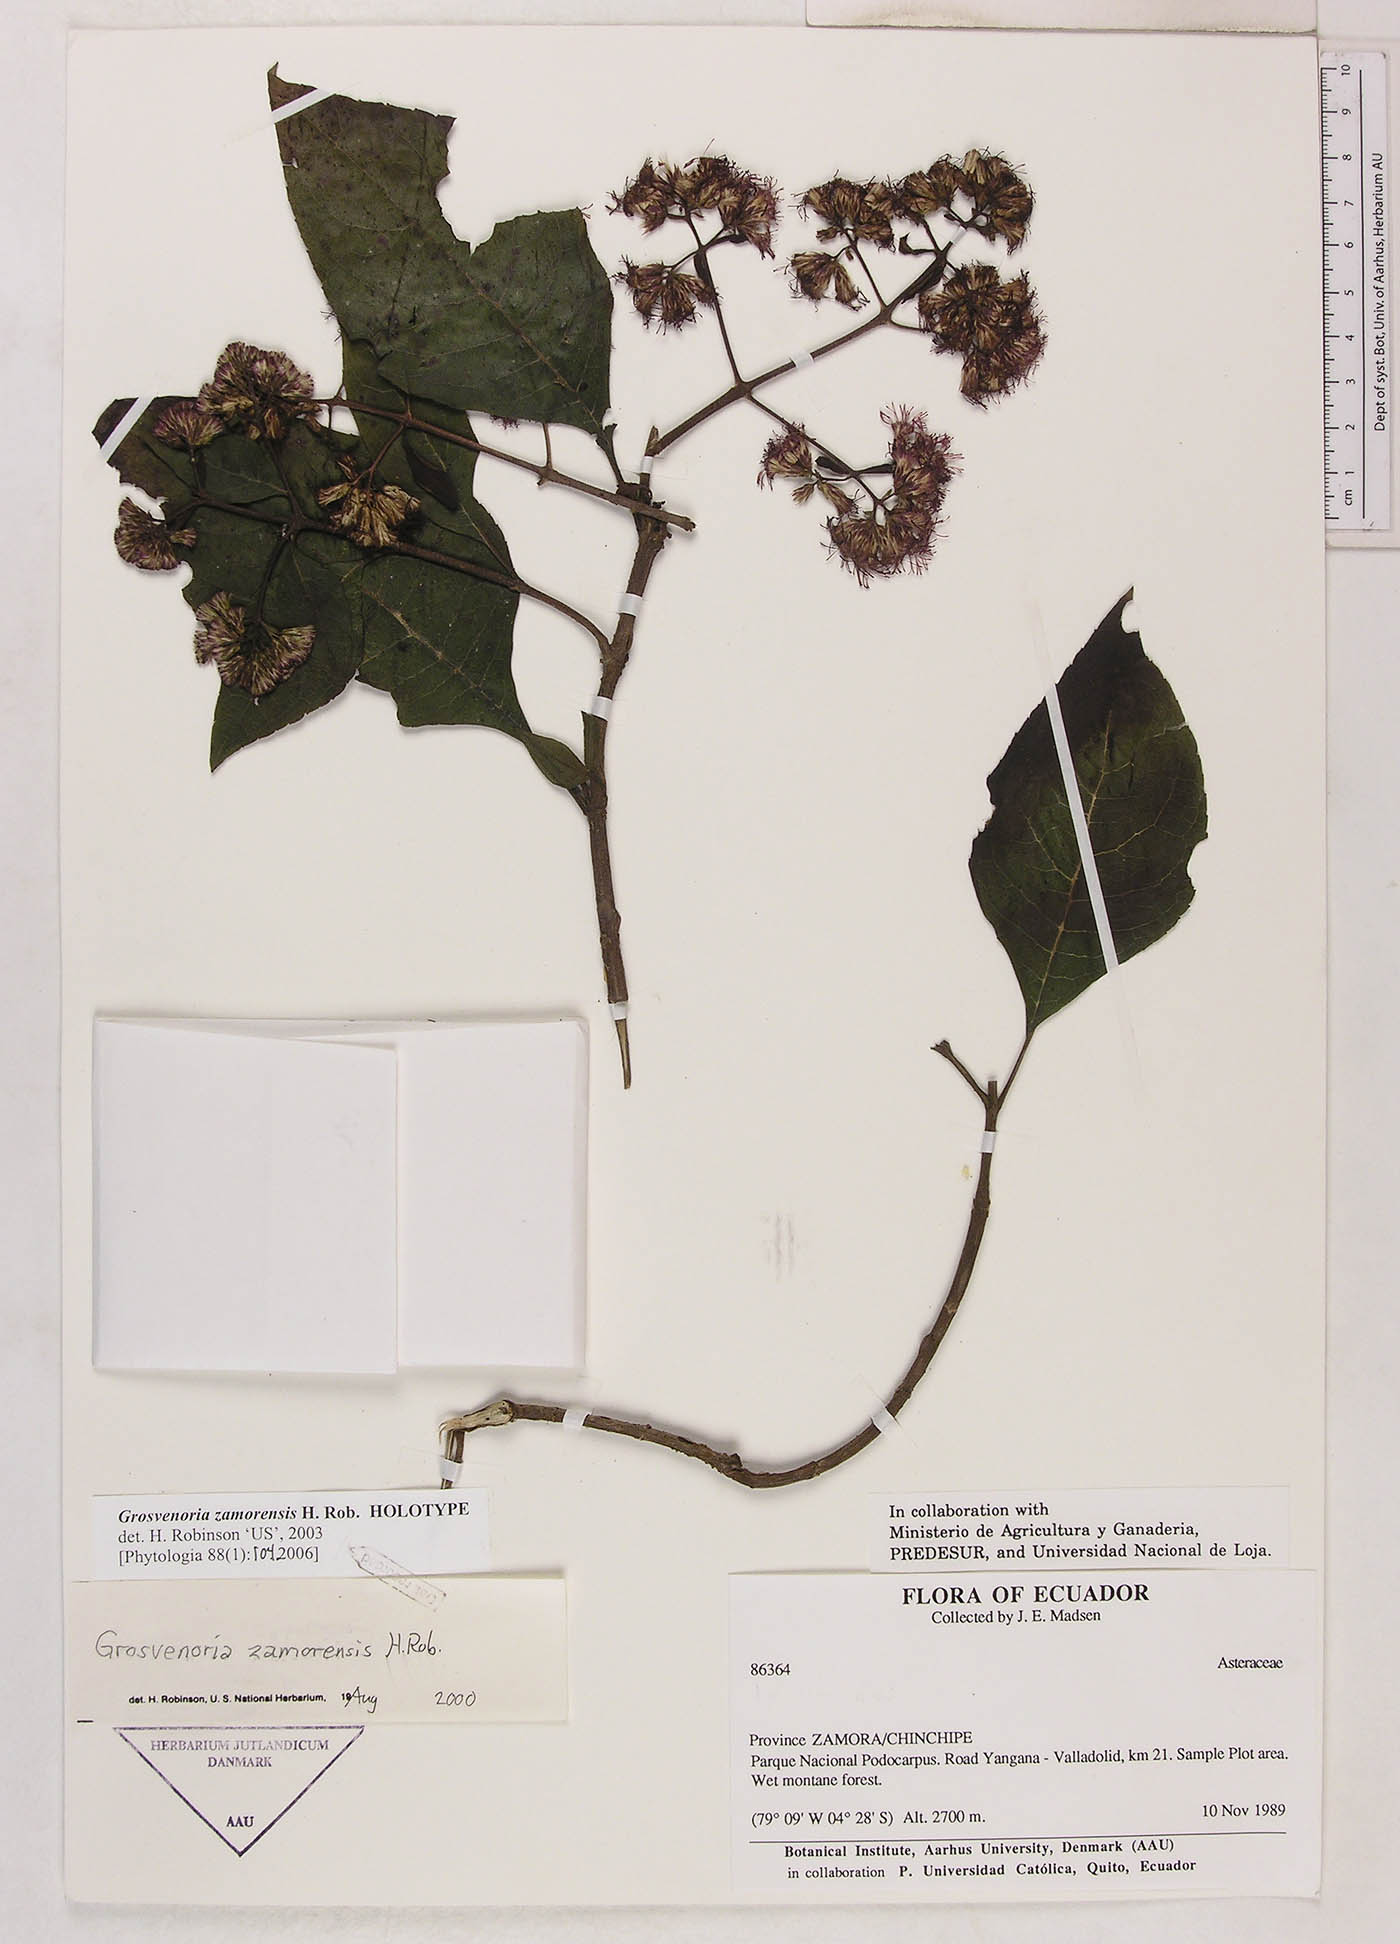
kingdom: Plantae
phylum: Tracheophyta
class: Magnoliopsida
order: Asterales
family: Asteraceae
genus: Grosvenoria
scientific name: Grosvenoria zamorensis
